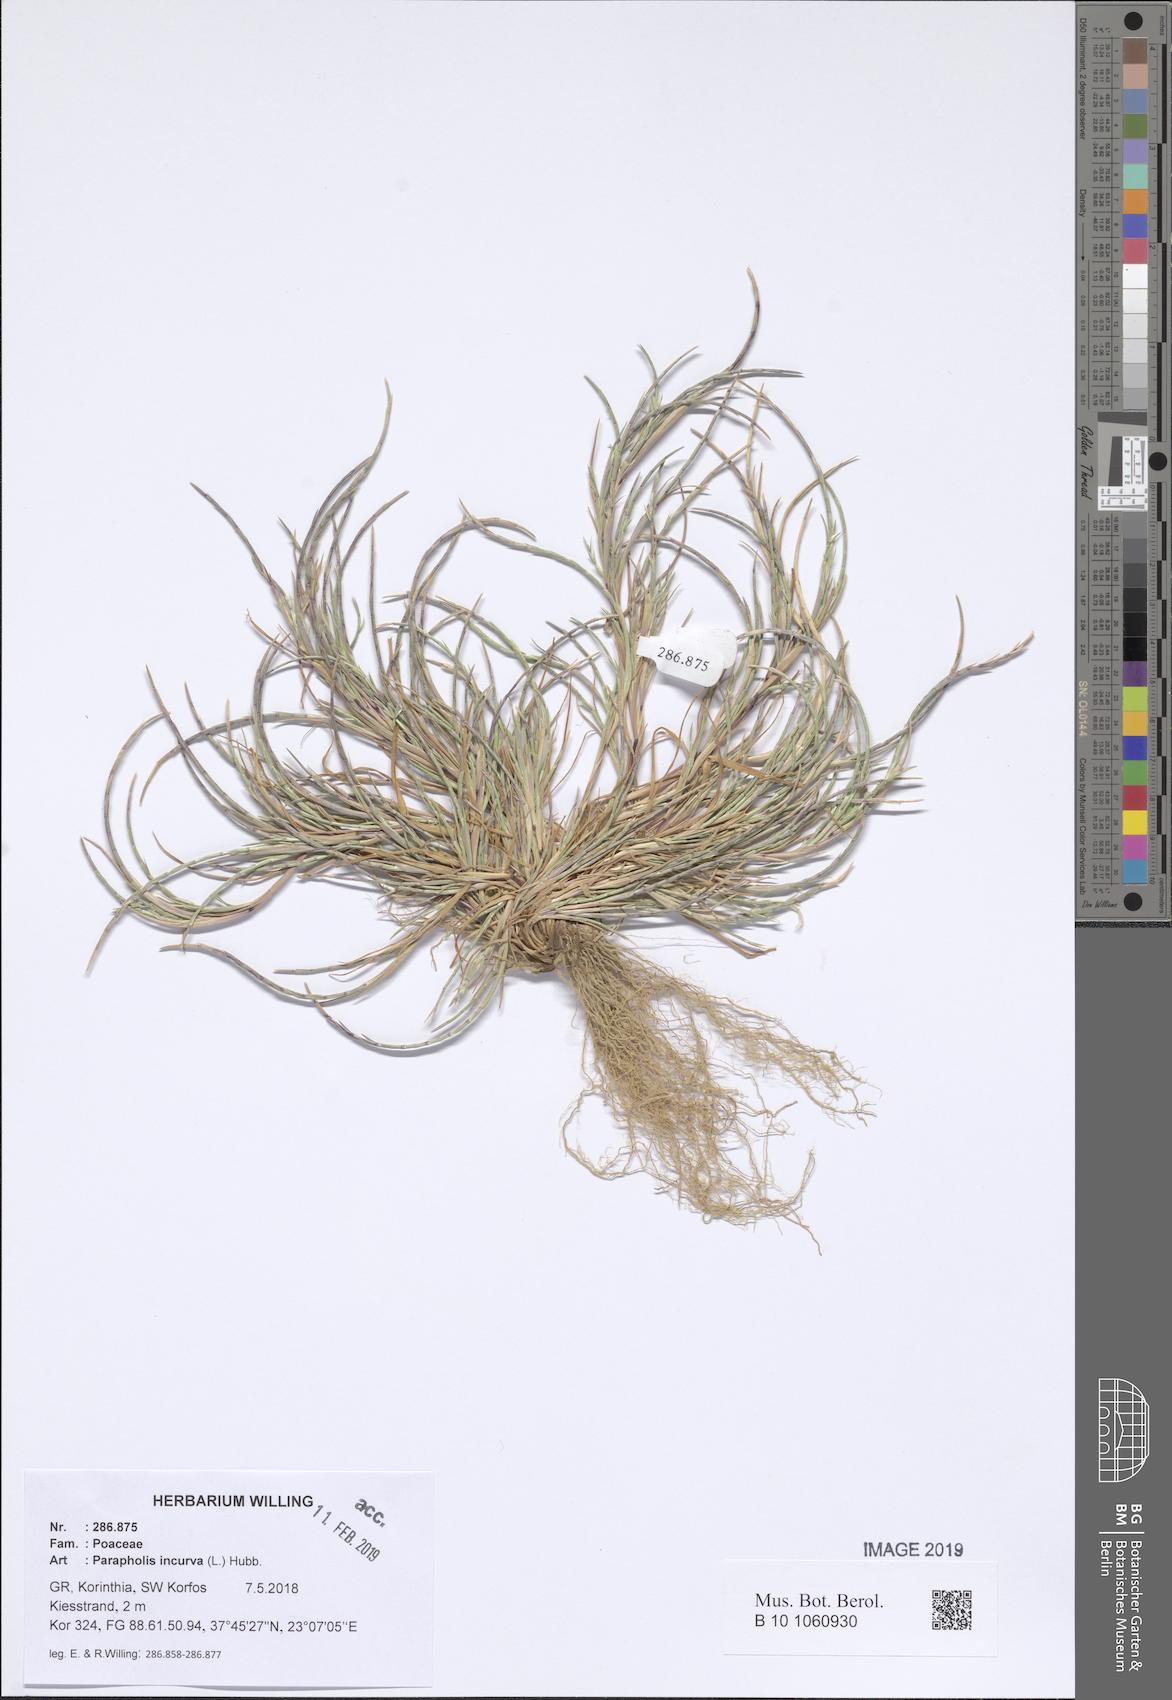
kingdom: Plantae
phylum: Tracheophyta
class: Liliopsida
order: Poales
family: Poaceae
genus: Parapholis
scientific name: Parapholis incurva
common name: Curved sicklegrass
